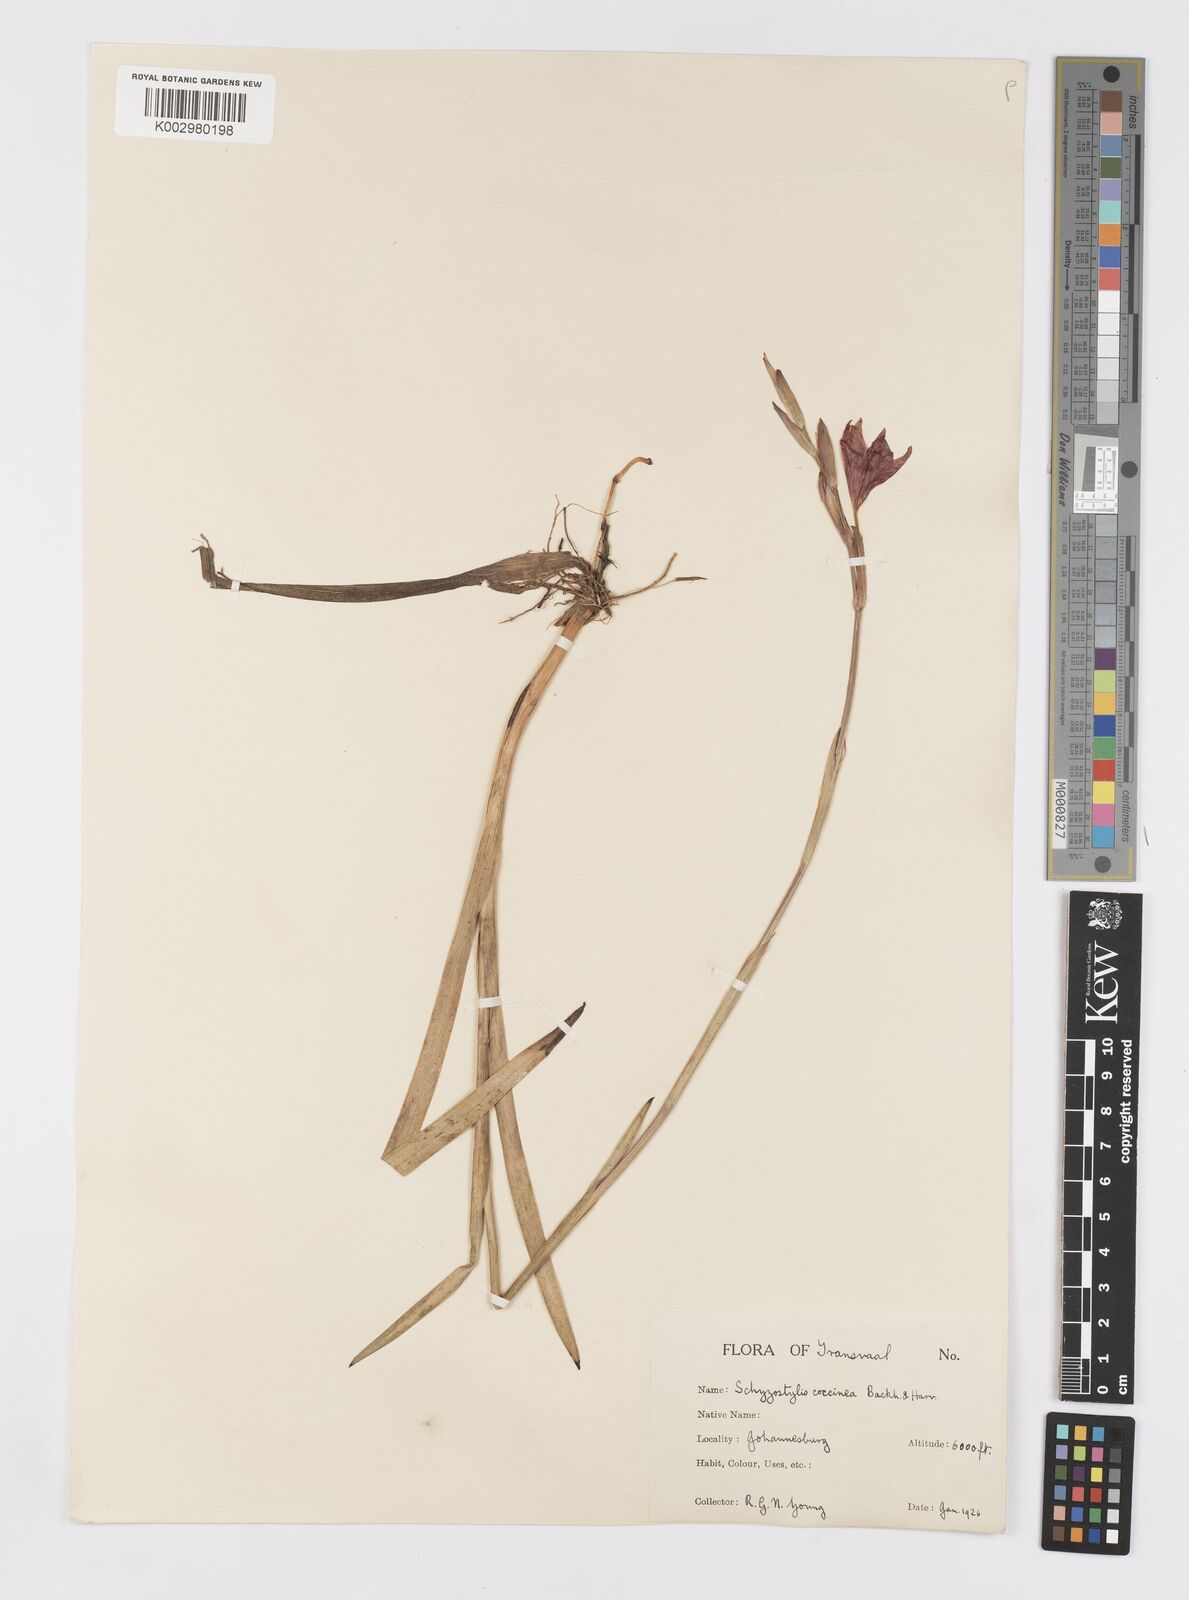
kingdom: Plantae
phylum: Tracheophyta
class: Liliopsida
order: Asparagales
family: Iridaceae
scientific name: Iridaceae
